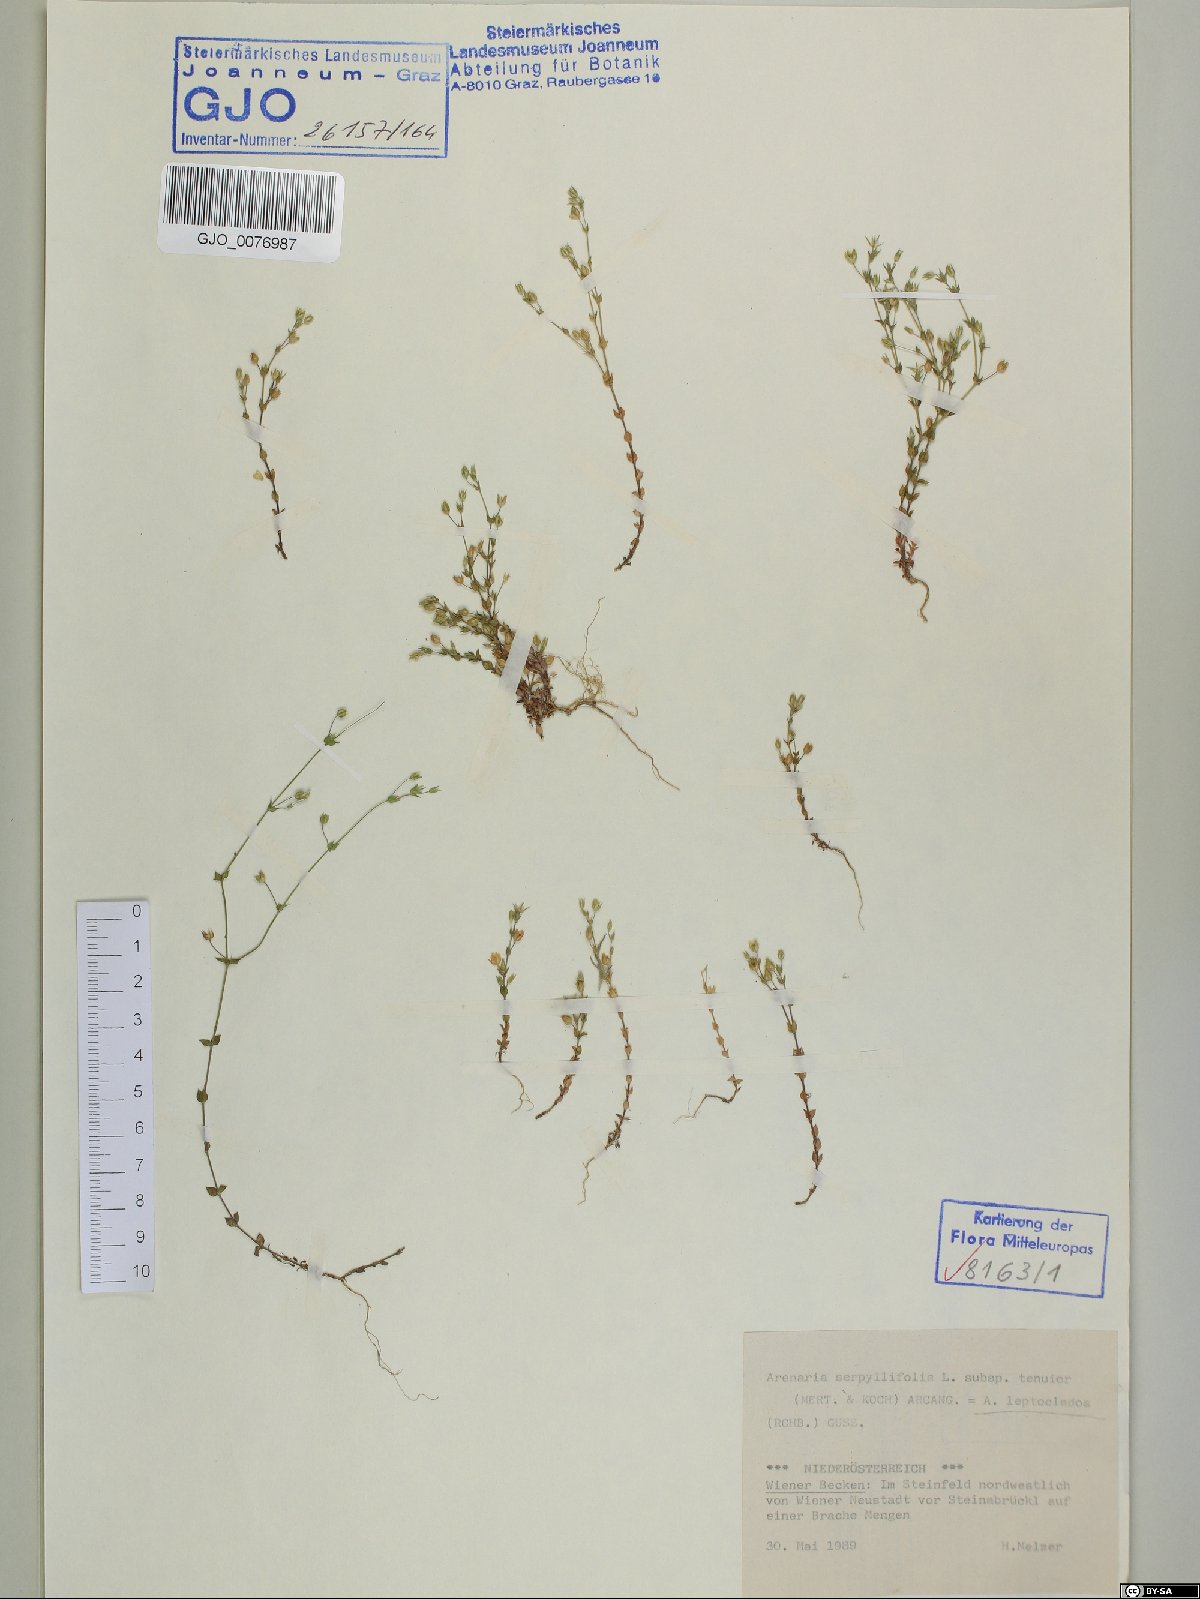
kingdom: Plantae
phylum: Tracheophyta
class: Magnoliopsida
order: Caryophyllales
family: Caryophyllaceae
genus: Arenaria
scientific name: Arenaria leptoclados
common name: Thyme-leaved sandwort
